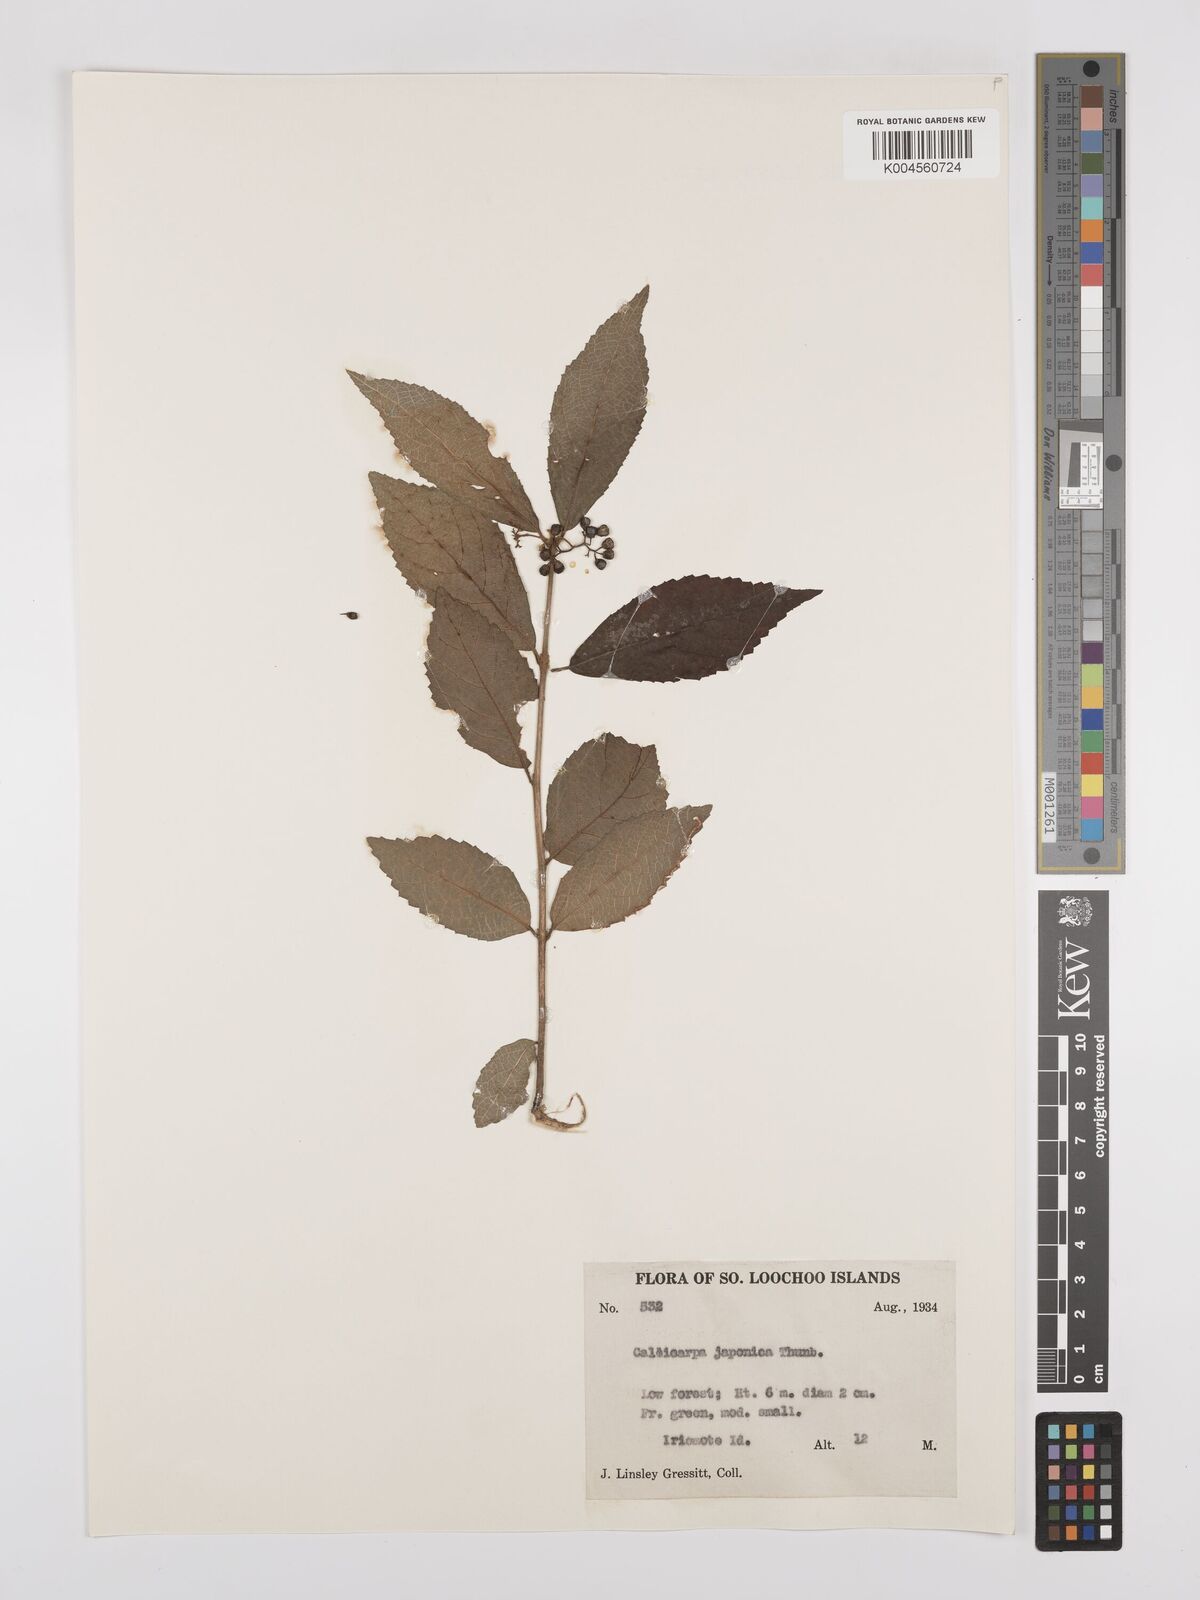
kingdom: Plantae
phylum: Tracheophyta
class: Magnoliopsida
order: Lamiales
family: Lamiaceae
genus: Callicarpa
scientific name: Callicarpa japonica
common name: Japanese beauty-berry
